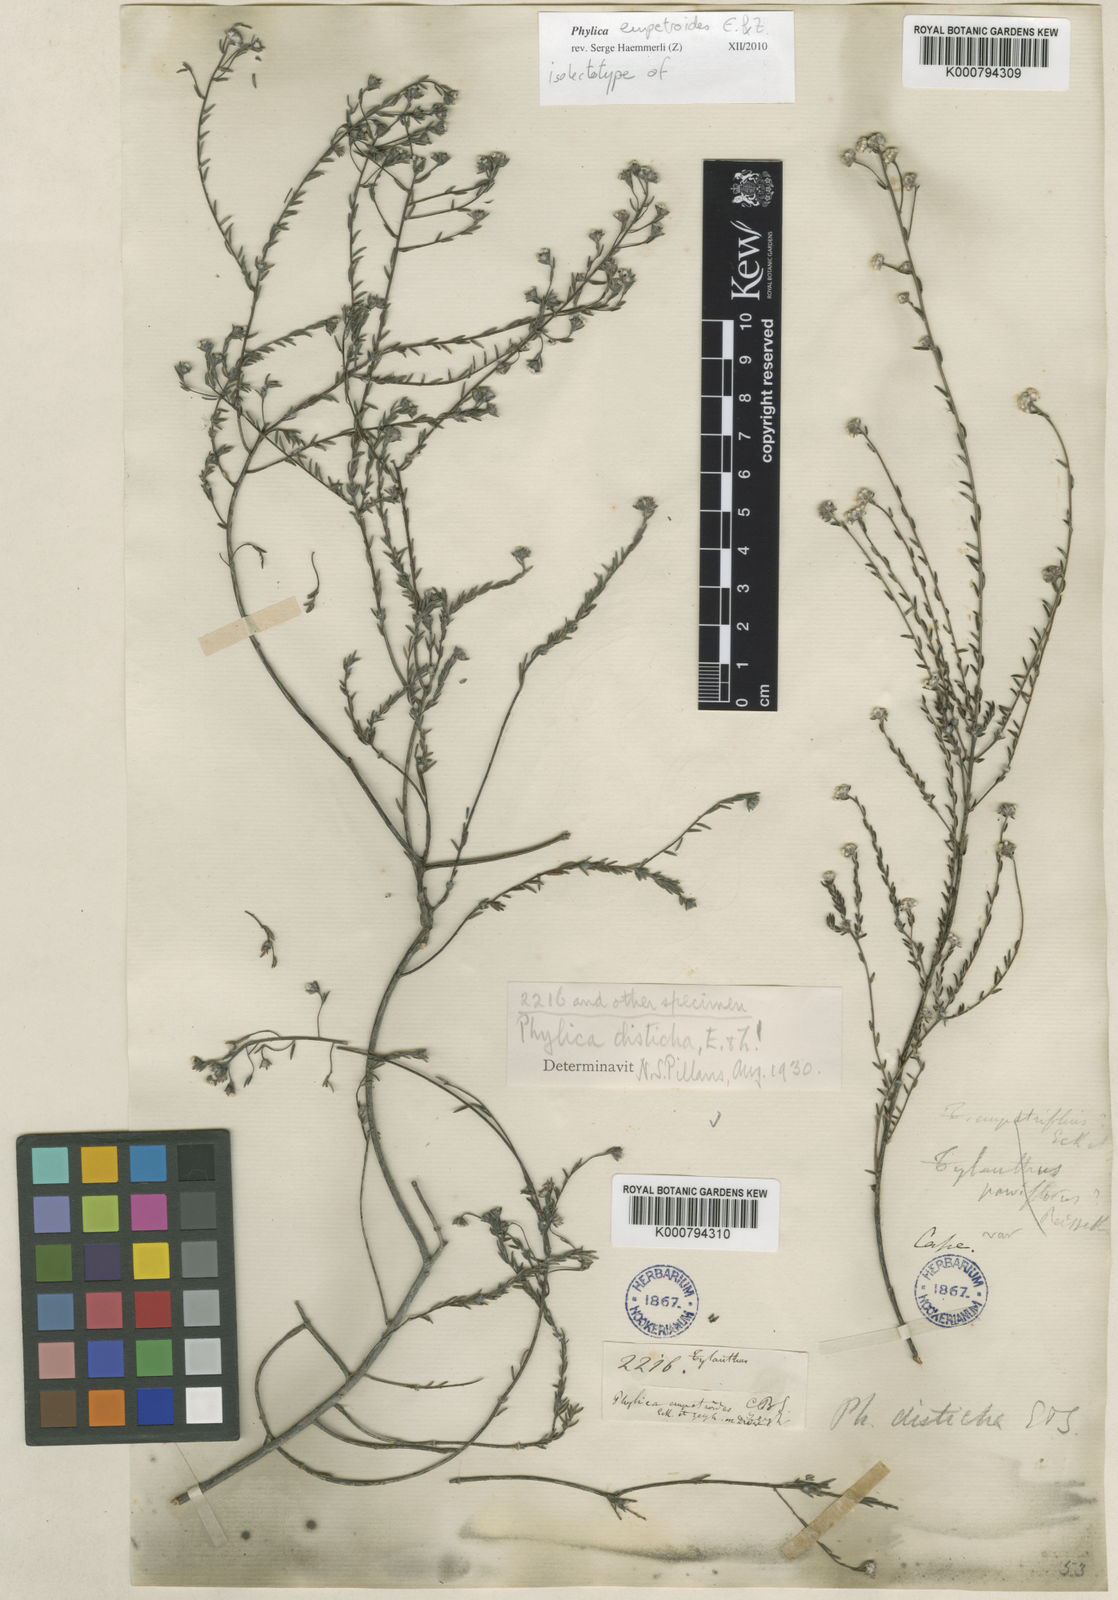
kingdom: Plantae
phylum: Tracheophyta
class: Magnoliopsida
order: Rosales
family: Rhamnaceae
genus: Phylica
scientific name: Phylica disticha
